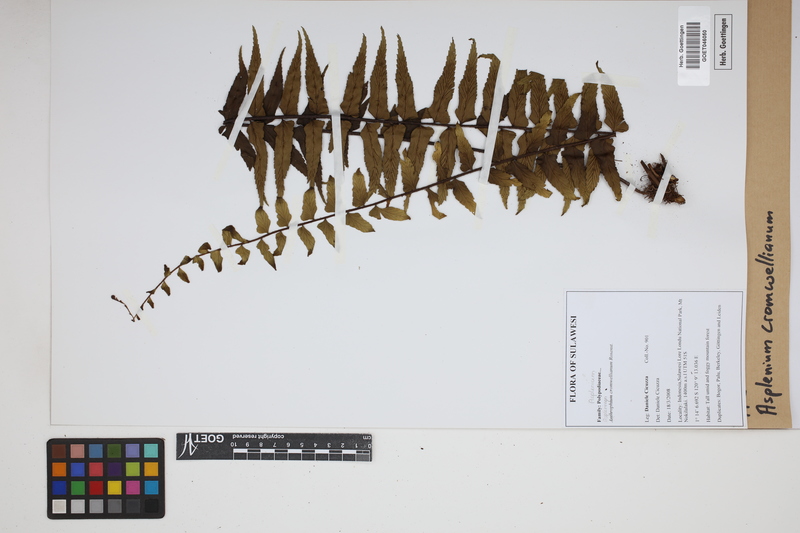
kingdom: Plantae
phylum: Tracheophyta
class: Polypodiopsida
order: Polypodiales
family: Aspleniaceae
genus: Asplenium
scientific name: Asplenium lobulatum
